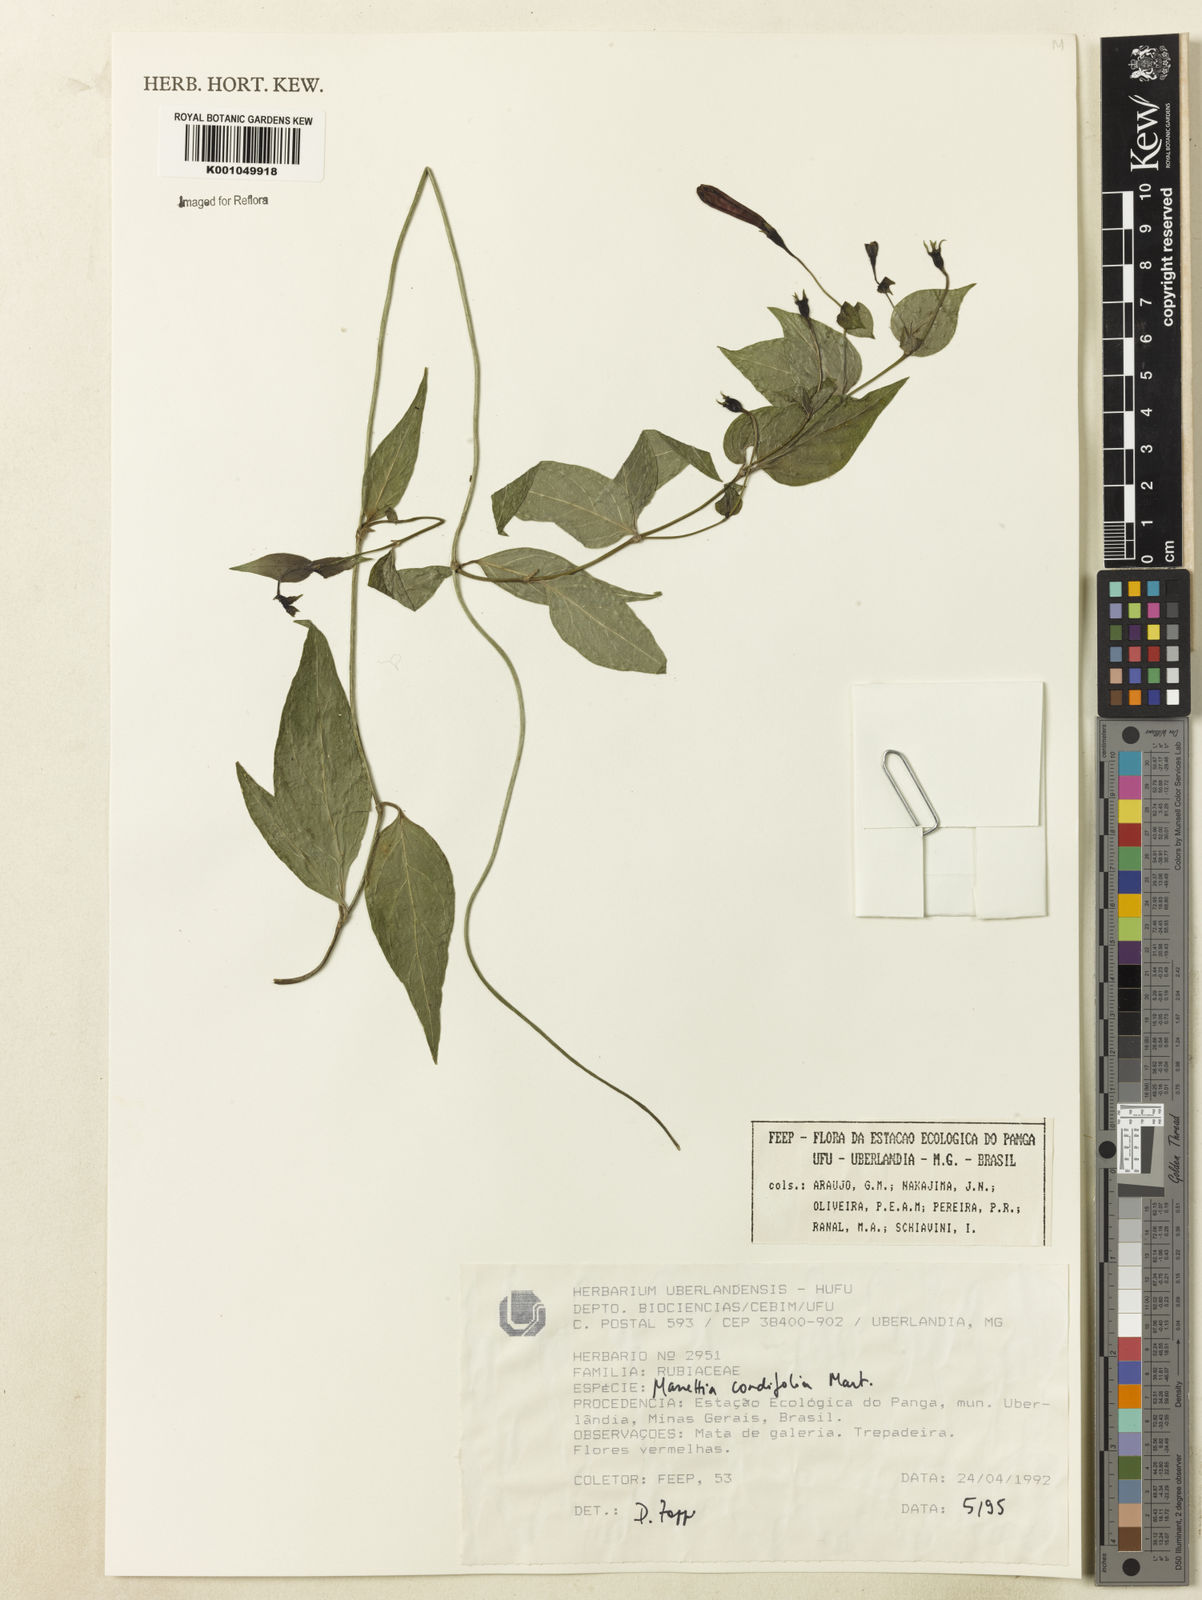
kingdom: Plantae
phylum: Tracheophyta
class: Magnoliopsida
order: Gentianales
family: Rubiaceae
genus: Manettia
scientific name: Manettia cordifolia
